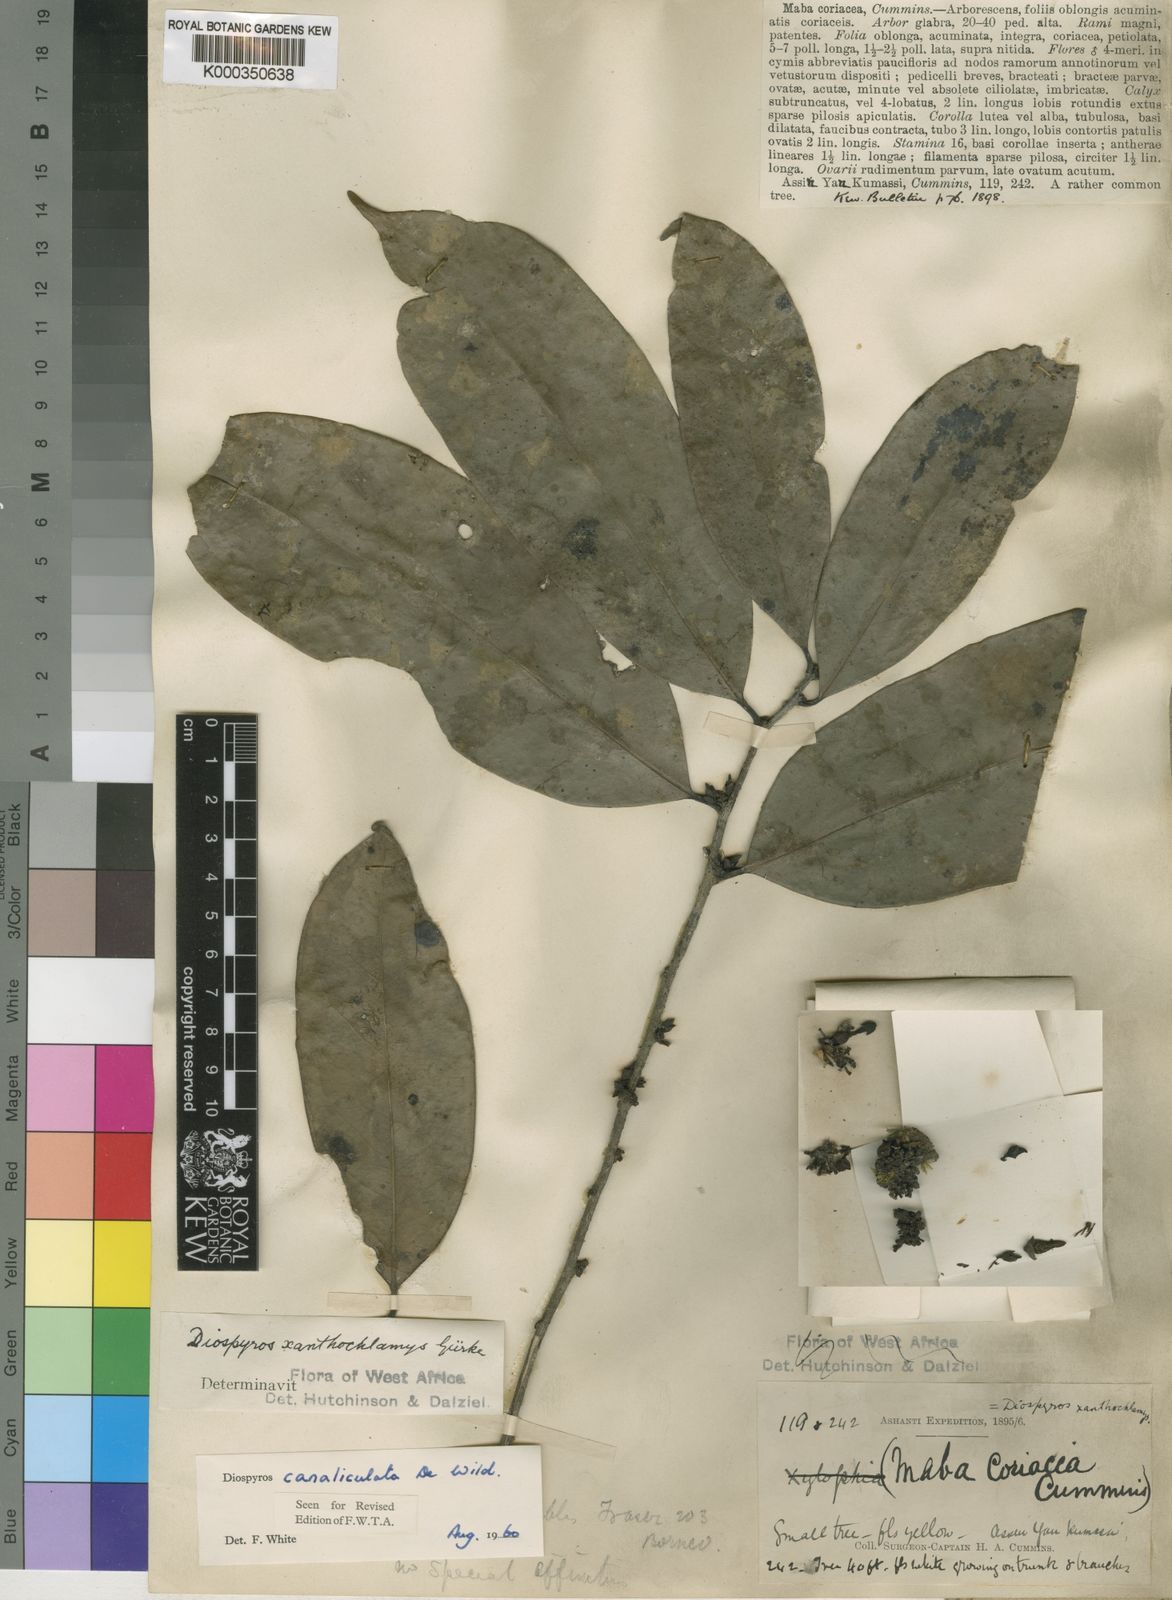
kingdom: Plantae
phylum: Tracheophyta
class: Magnoliopsida
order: Ericales
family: Ebenaceae
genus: Diospyros
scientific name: Diospyros canaliculata
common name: Flint bark
